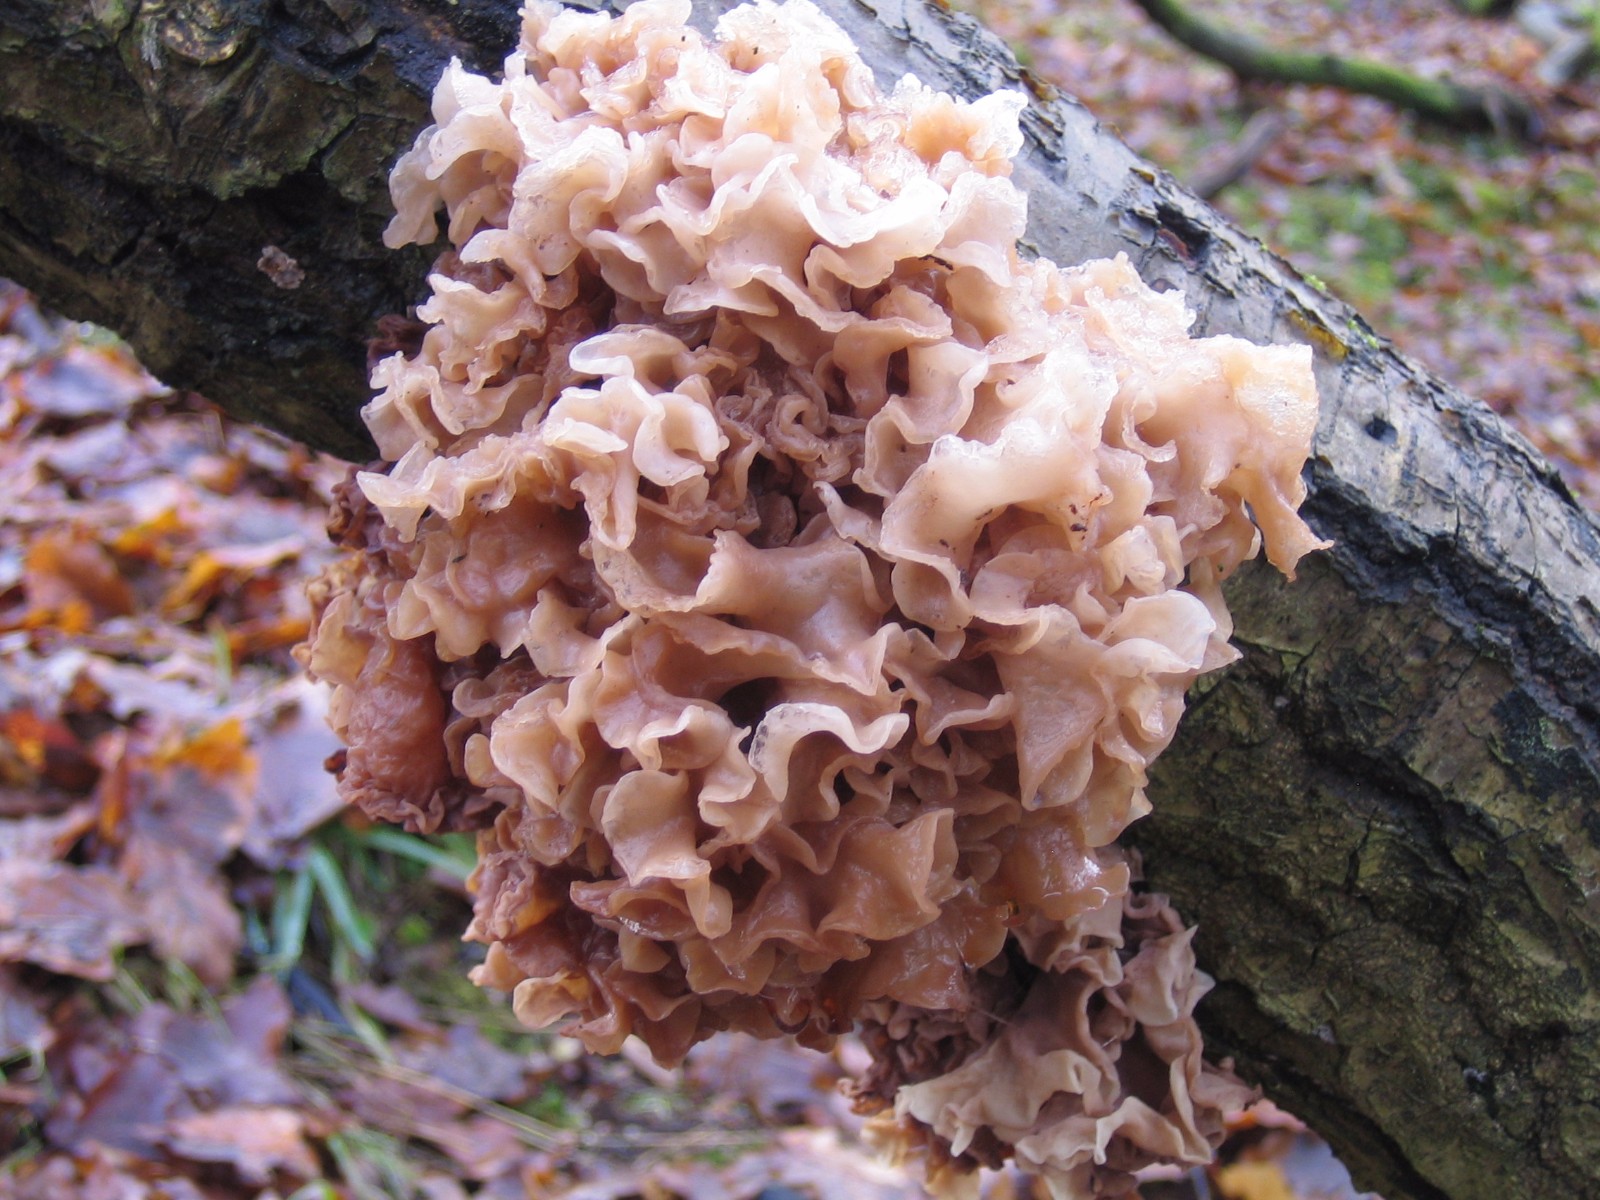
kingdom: Fungi
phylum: Basidiomycota
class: Tremellomycetes
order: Tremellales
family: Tremellaceae
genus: Phaeotremella
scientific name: Phaeotremella frondosa
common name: kæmpe-bævresvamp
